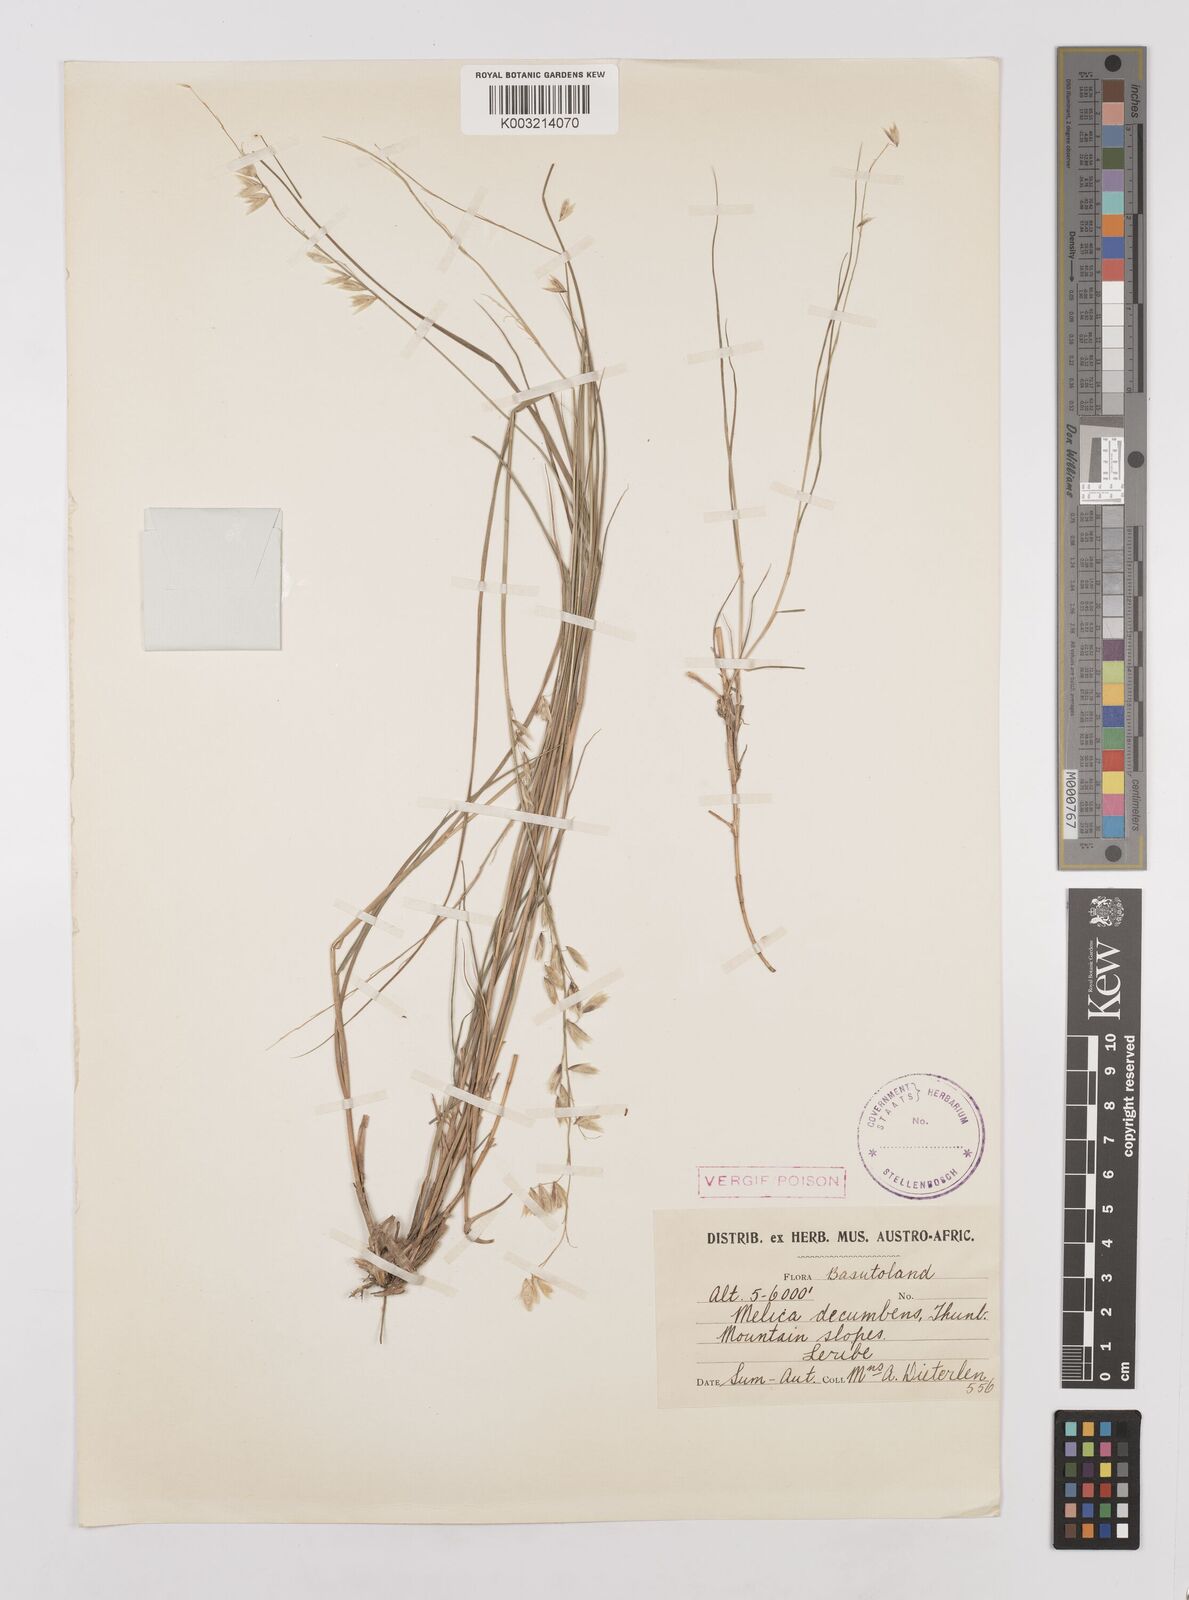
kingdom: Plantae
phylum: Tracheophyta
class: Liliopsida
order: Poales
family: Poaceae
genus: Melica
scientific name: Melica dendroides
